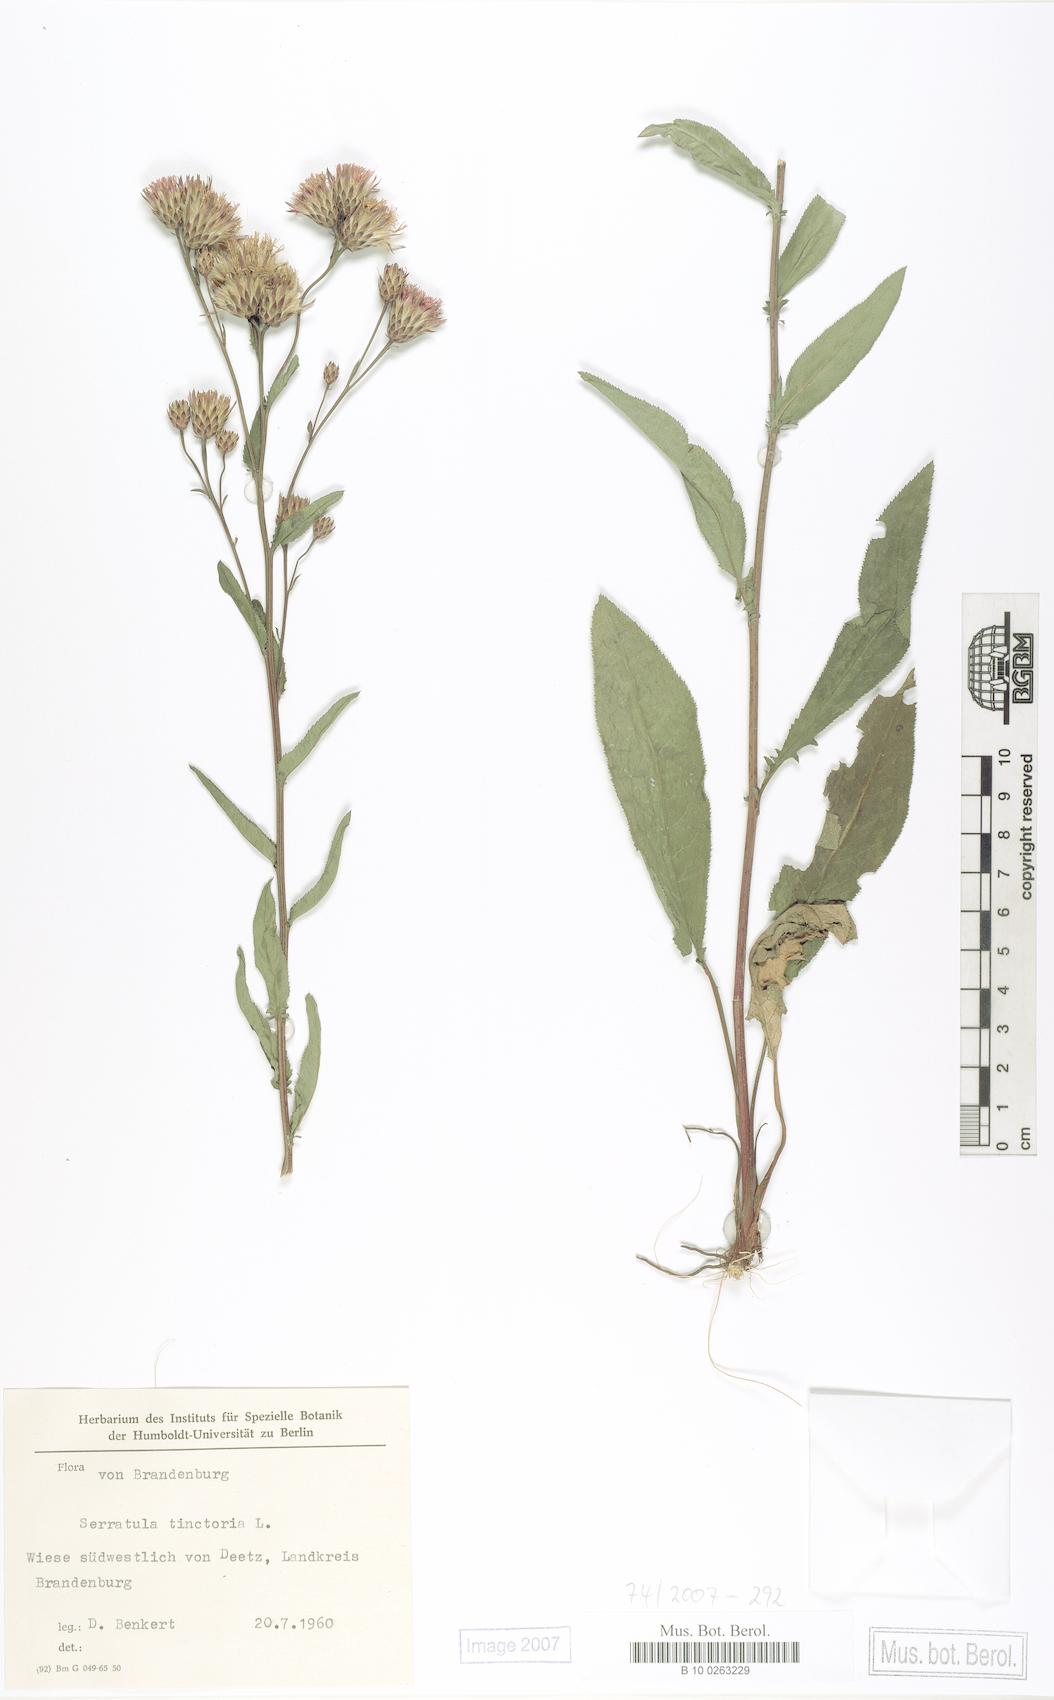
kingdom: Plantae
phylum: Tracheophyta
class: Magnoliopsida
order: Asterales
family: Asteraceae
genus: Serratula
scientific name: Serratula tinctoria
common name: Saw-wort
